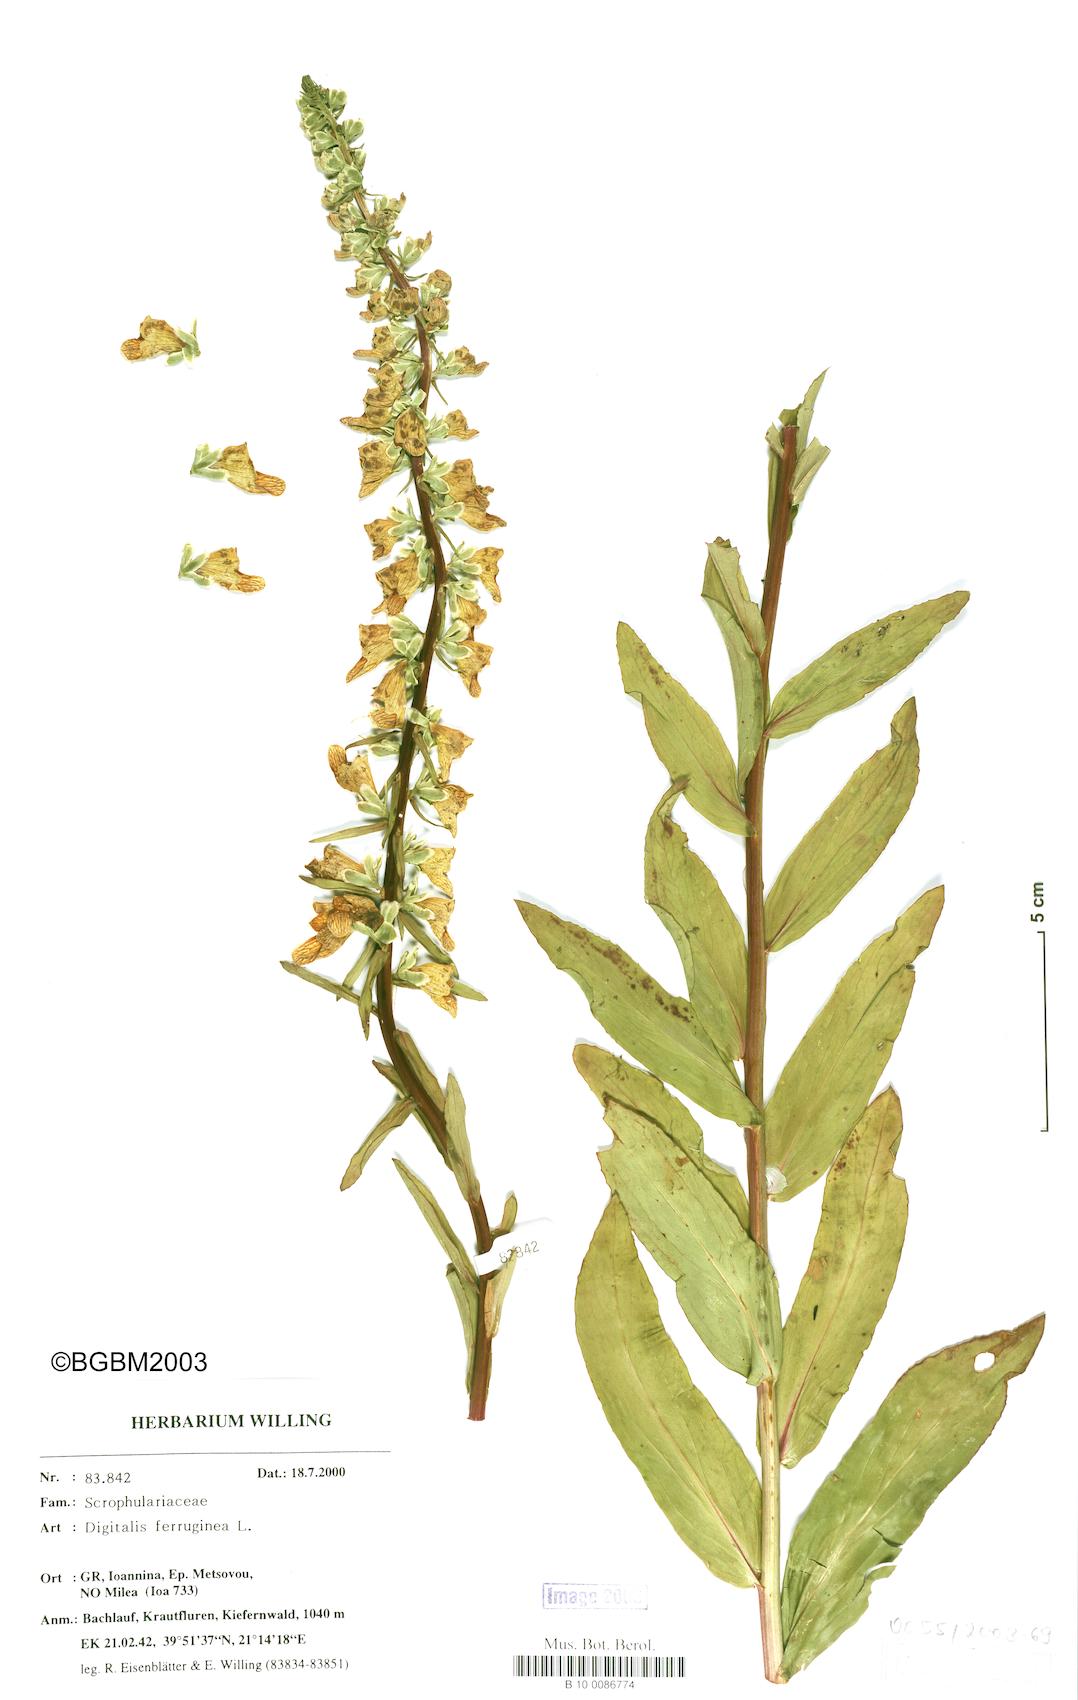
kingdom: Plantae
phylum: Tracheophyta
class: Magnoliopsida
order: Lamiales
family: Plantaginaceae
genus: Digitalis
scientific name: Digitalis ferruginea
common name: Rusty foxglove
